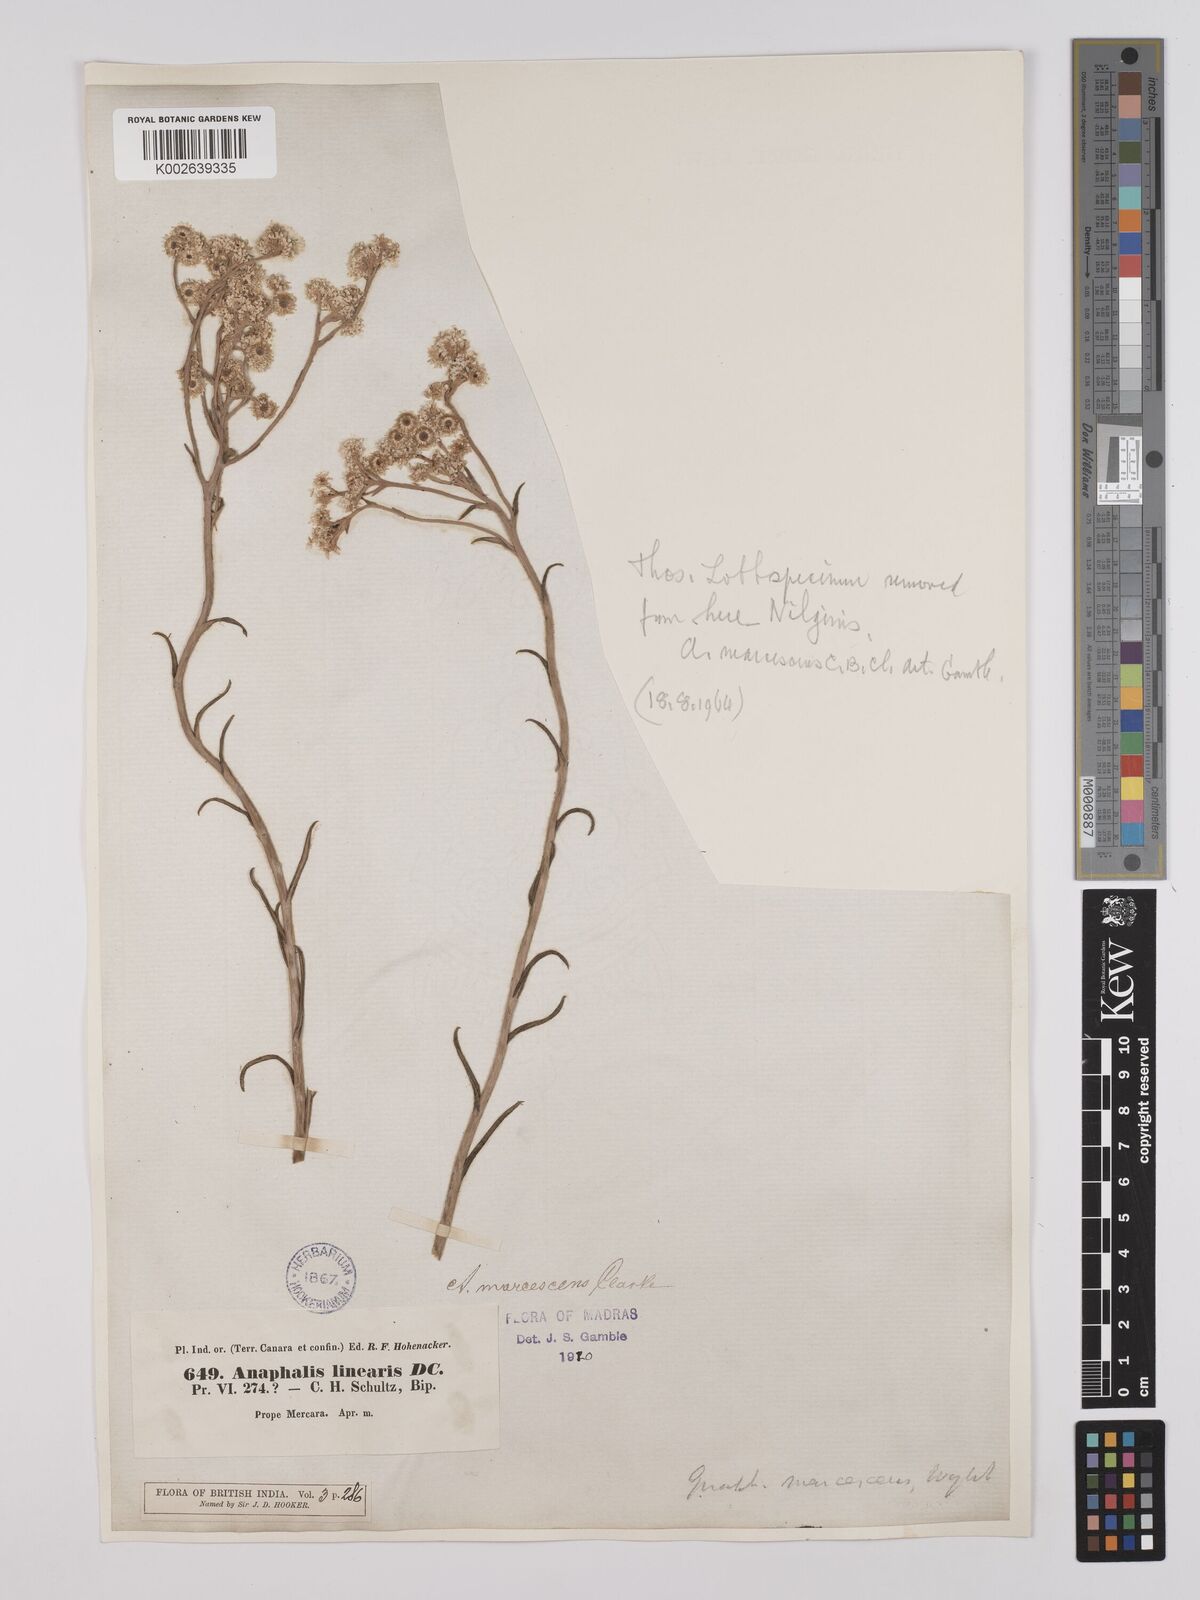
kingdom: Plantae
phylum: Tracheophyta
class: Magnoliopsida
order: Asterales
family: Asteraceae
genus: Anaphalis
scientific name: Anaphalis marcescens
